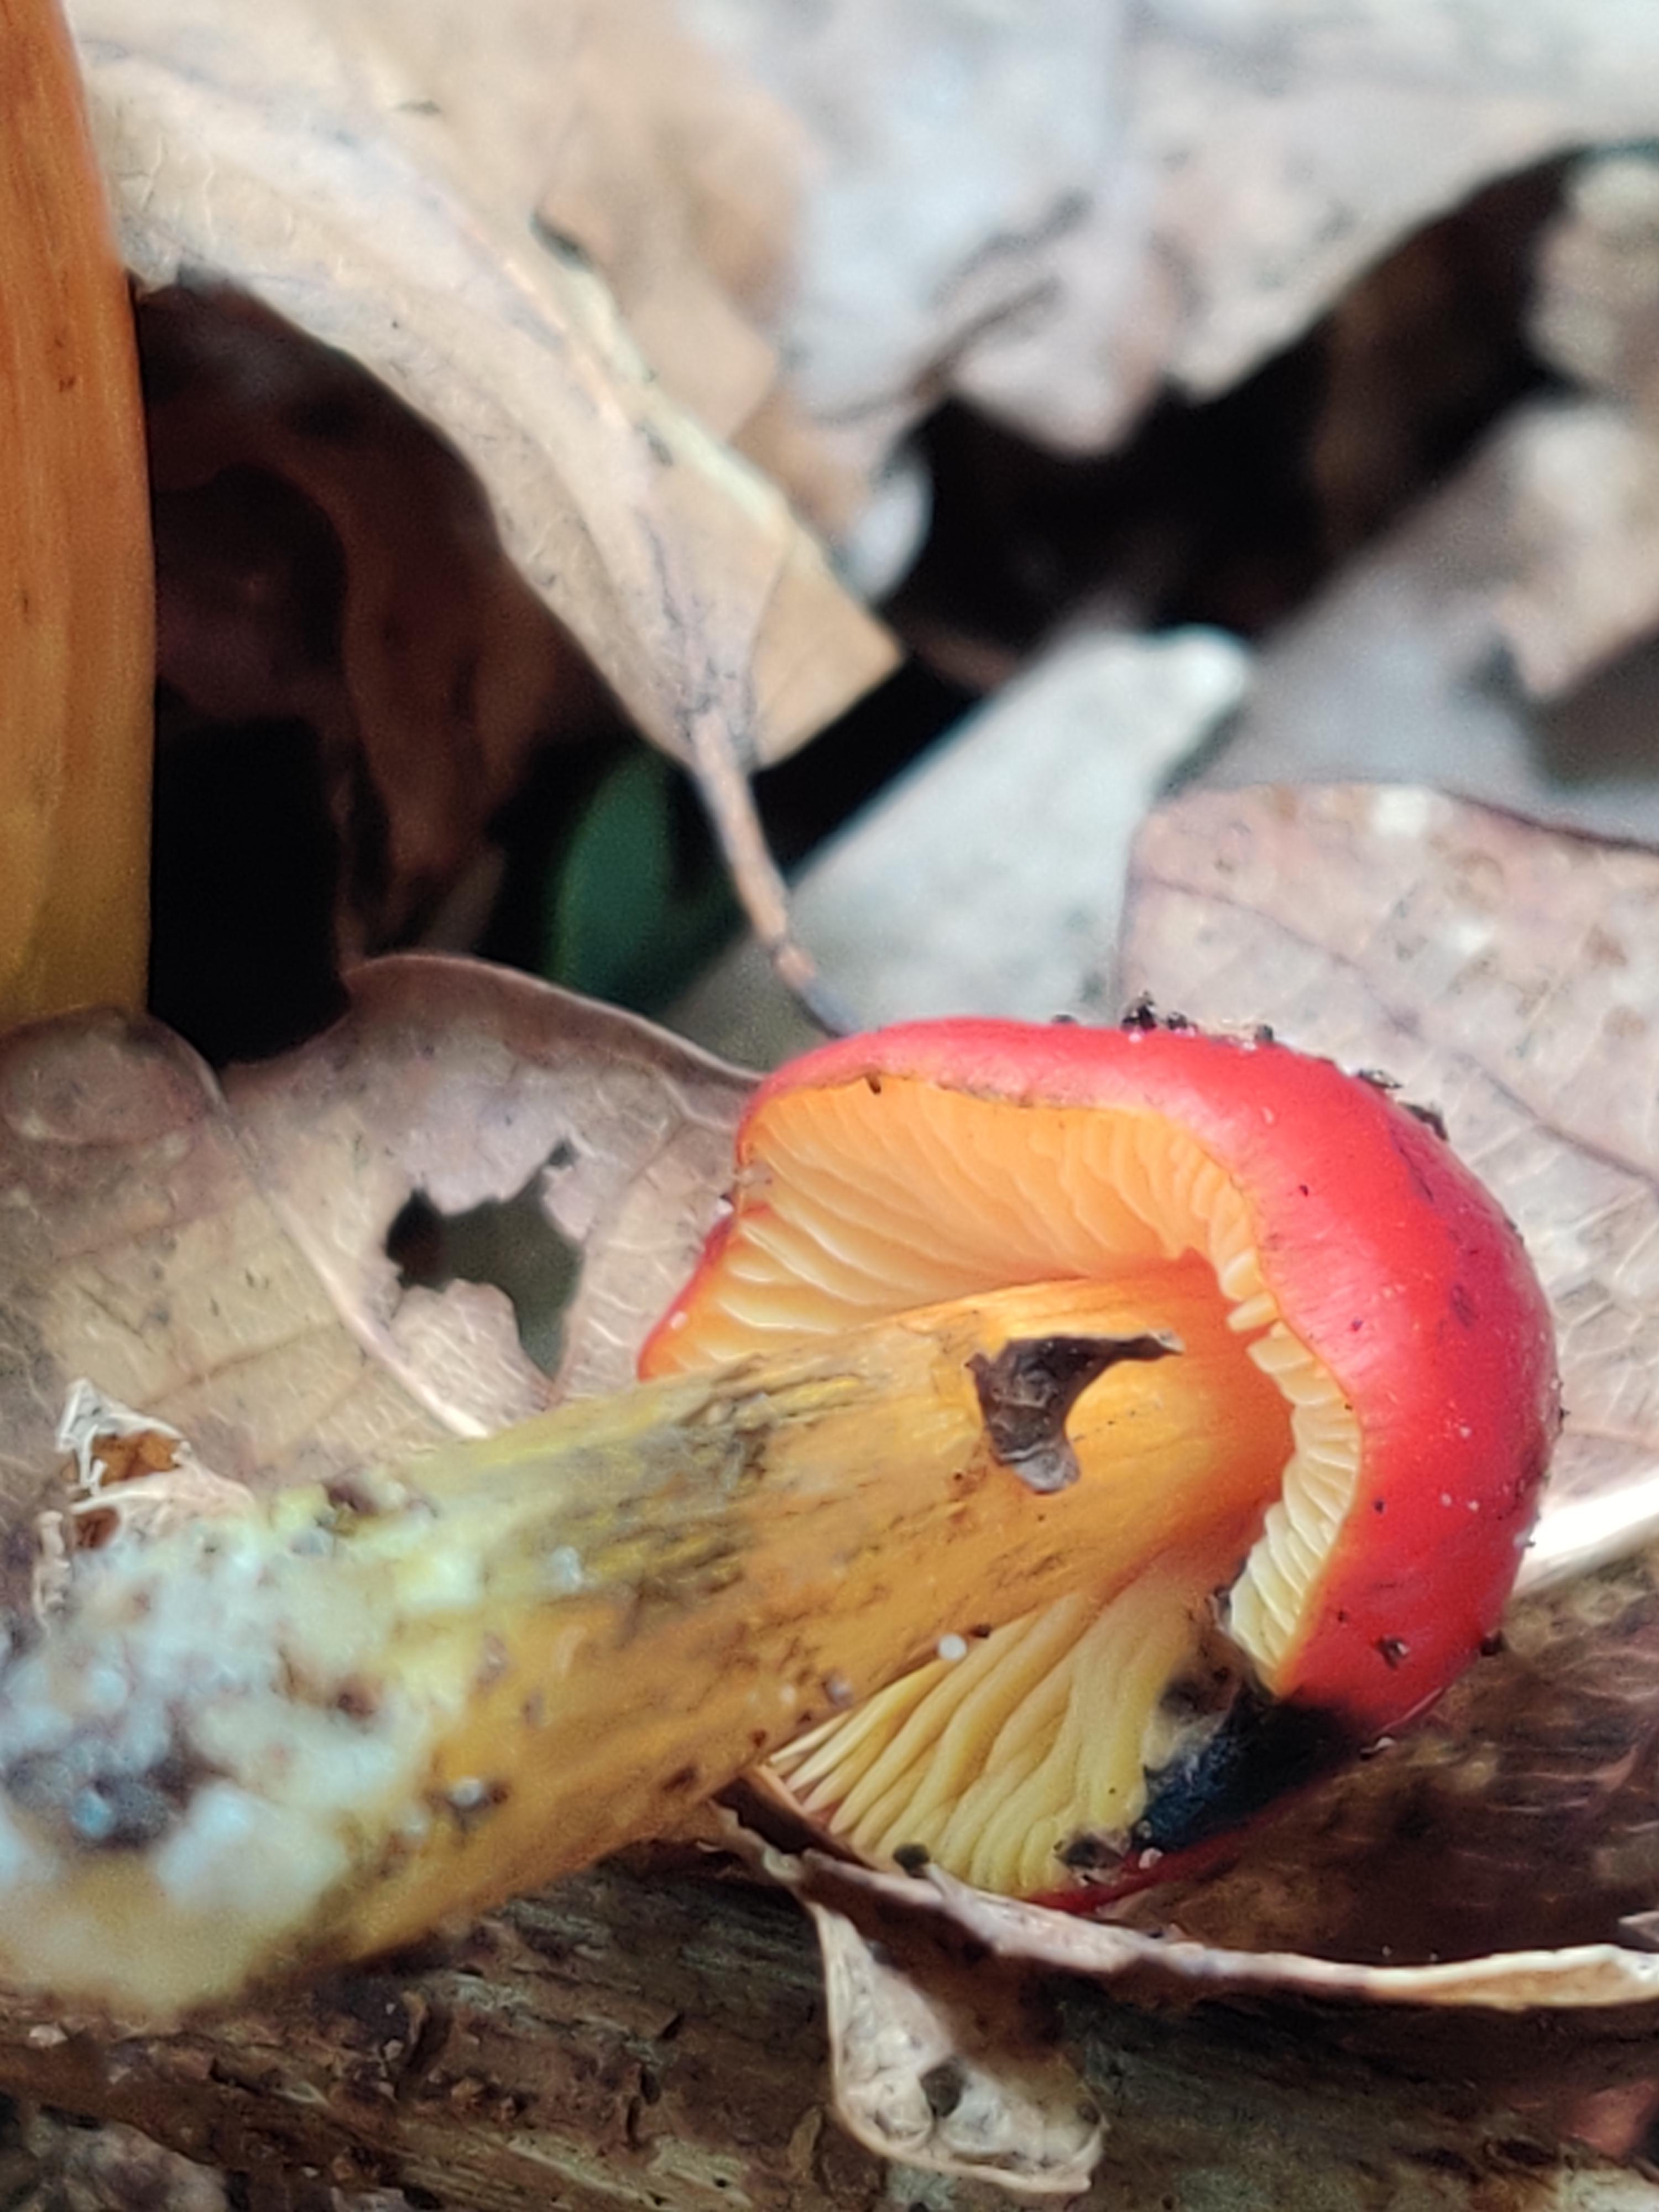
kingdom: Fungi
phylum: Basidiomycota
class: Agaricomycetes
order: Agaricales
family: Hygrophoraceae
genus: Hygrocybe
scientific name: Hygrocybe conica
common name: kegle-vokshat
